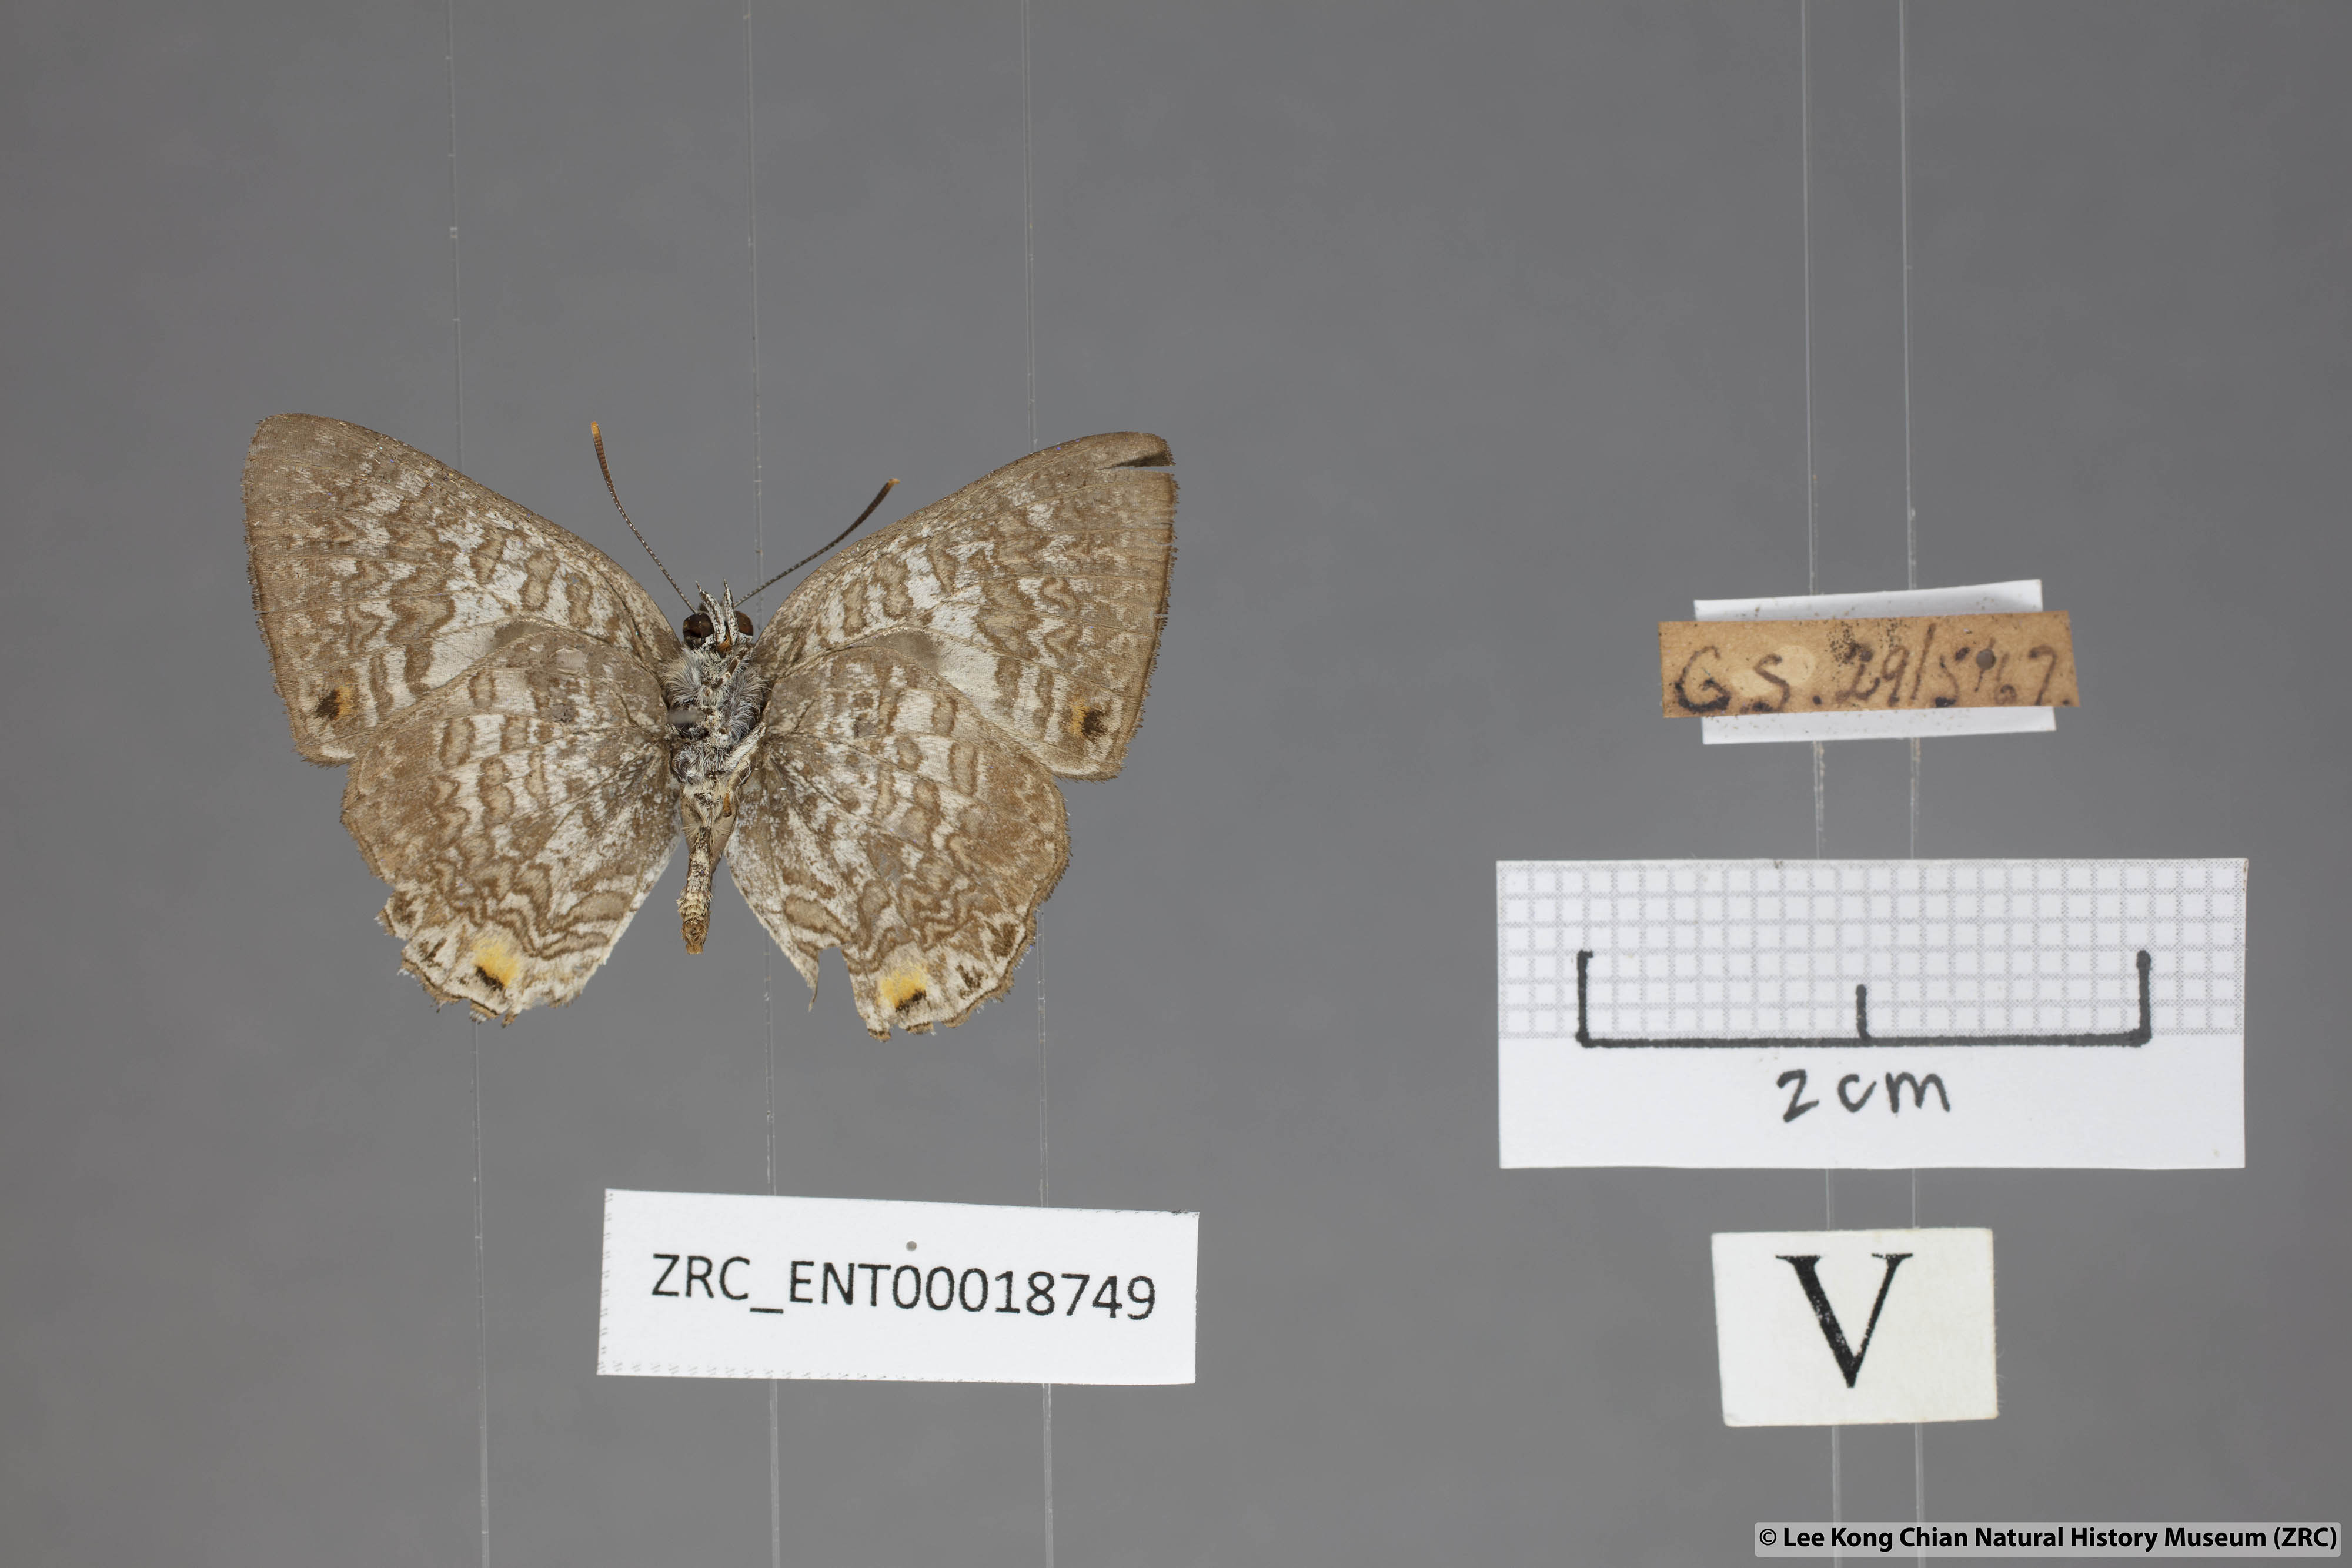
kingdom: Animalia
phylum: Arthropoda
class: Insecta
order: Lepidoptera
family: Lycaenidae
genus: Poritia
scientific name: Poritia erycinoides
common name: Blue gem
